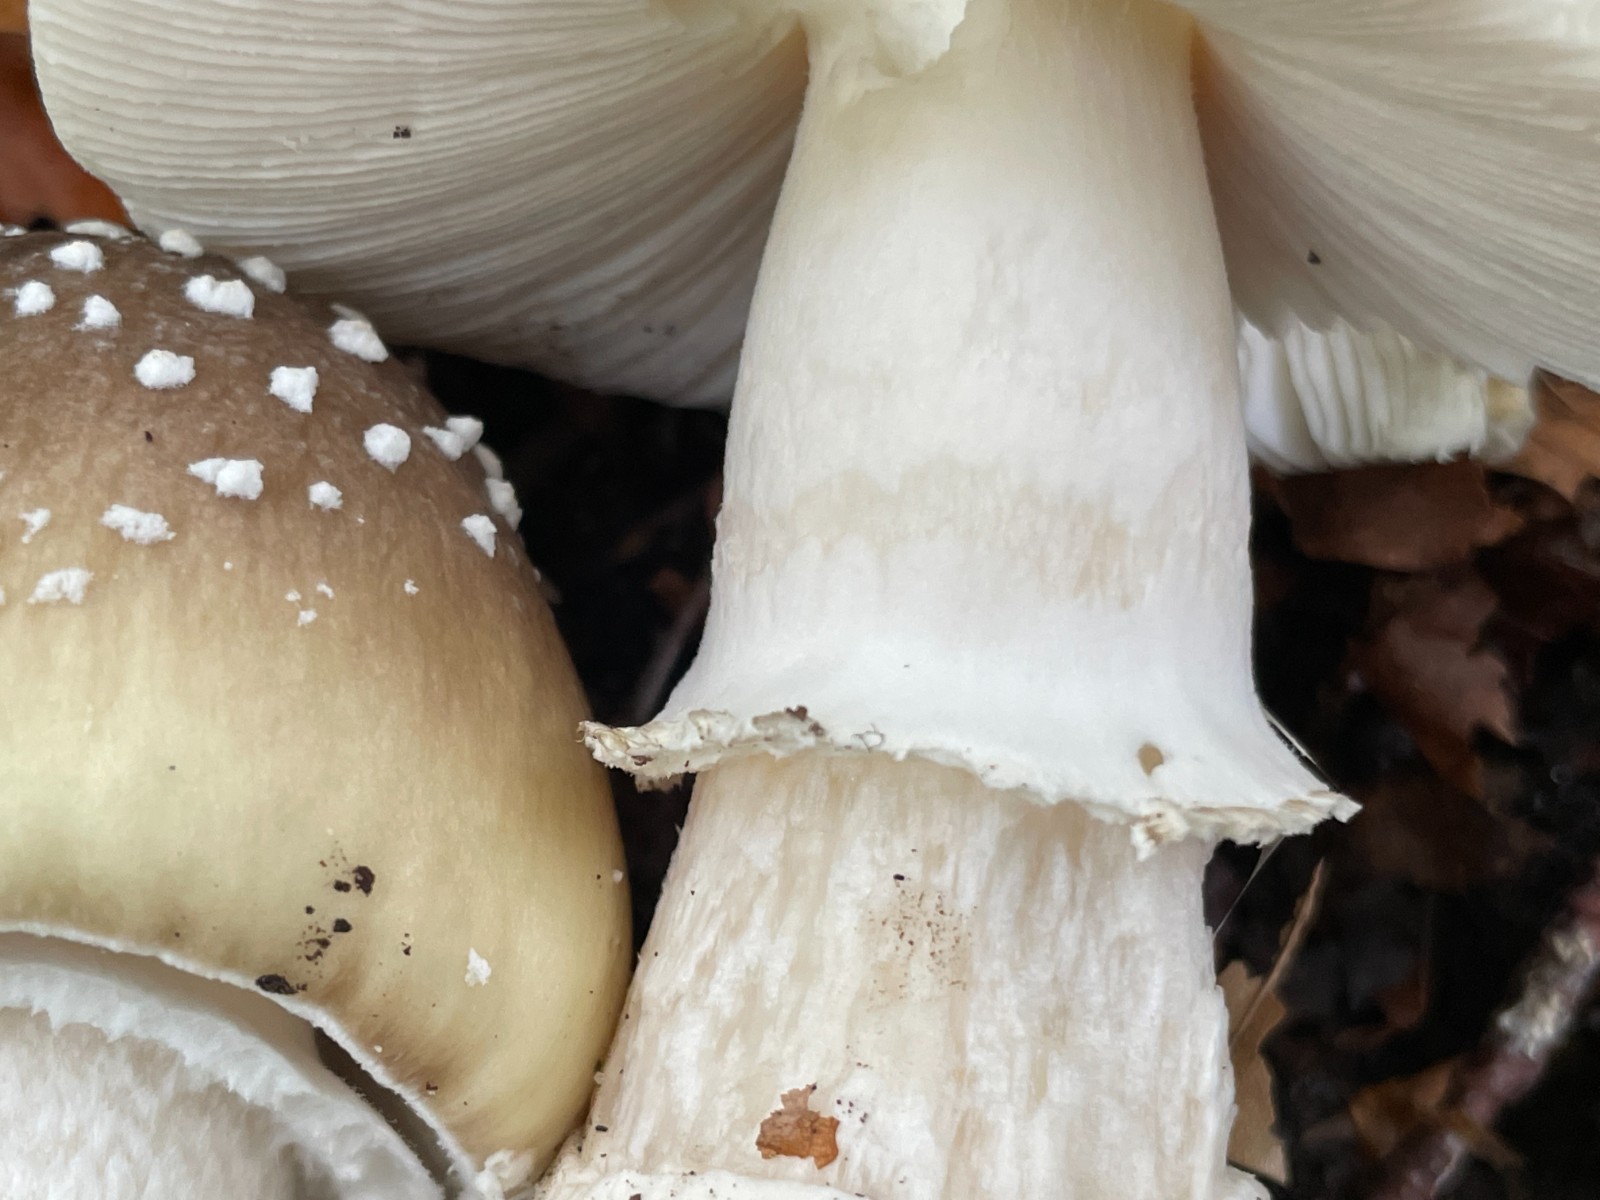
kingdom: Fungi
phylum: Basidiomycota
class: Agaricomycetes
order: Agaricales
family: Amanitaceae
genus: Amanita
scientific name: Amanita pantherina
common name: panter-fluesvamp
